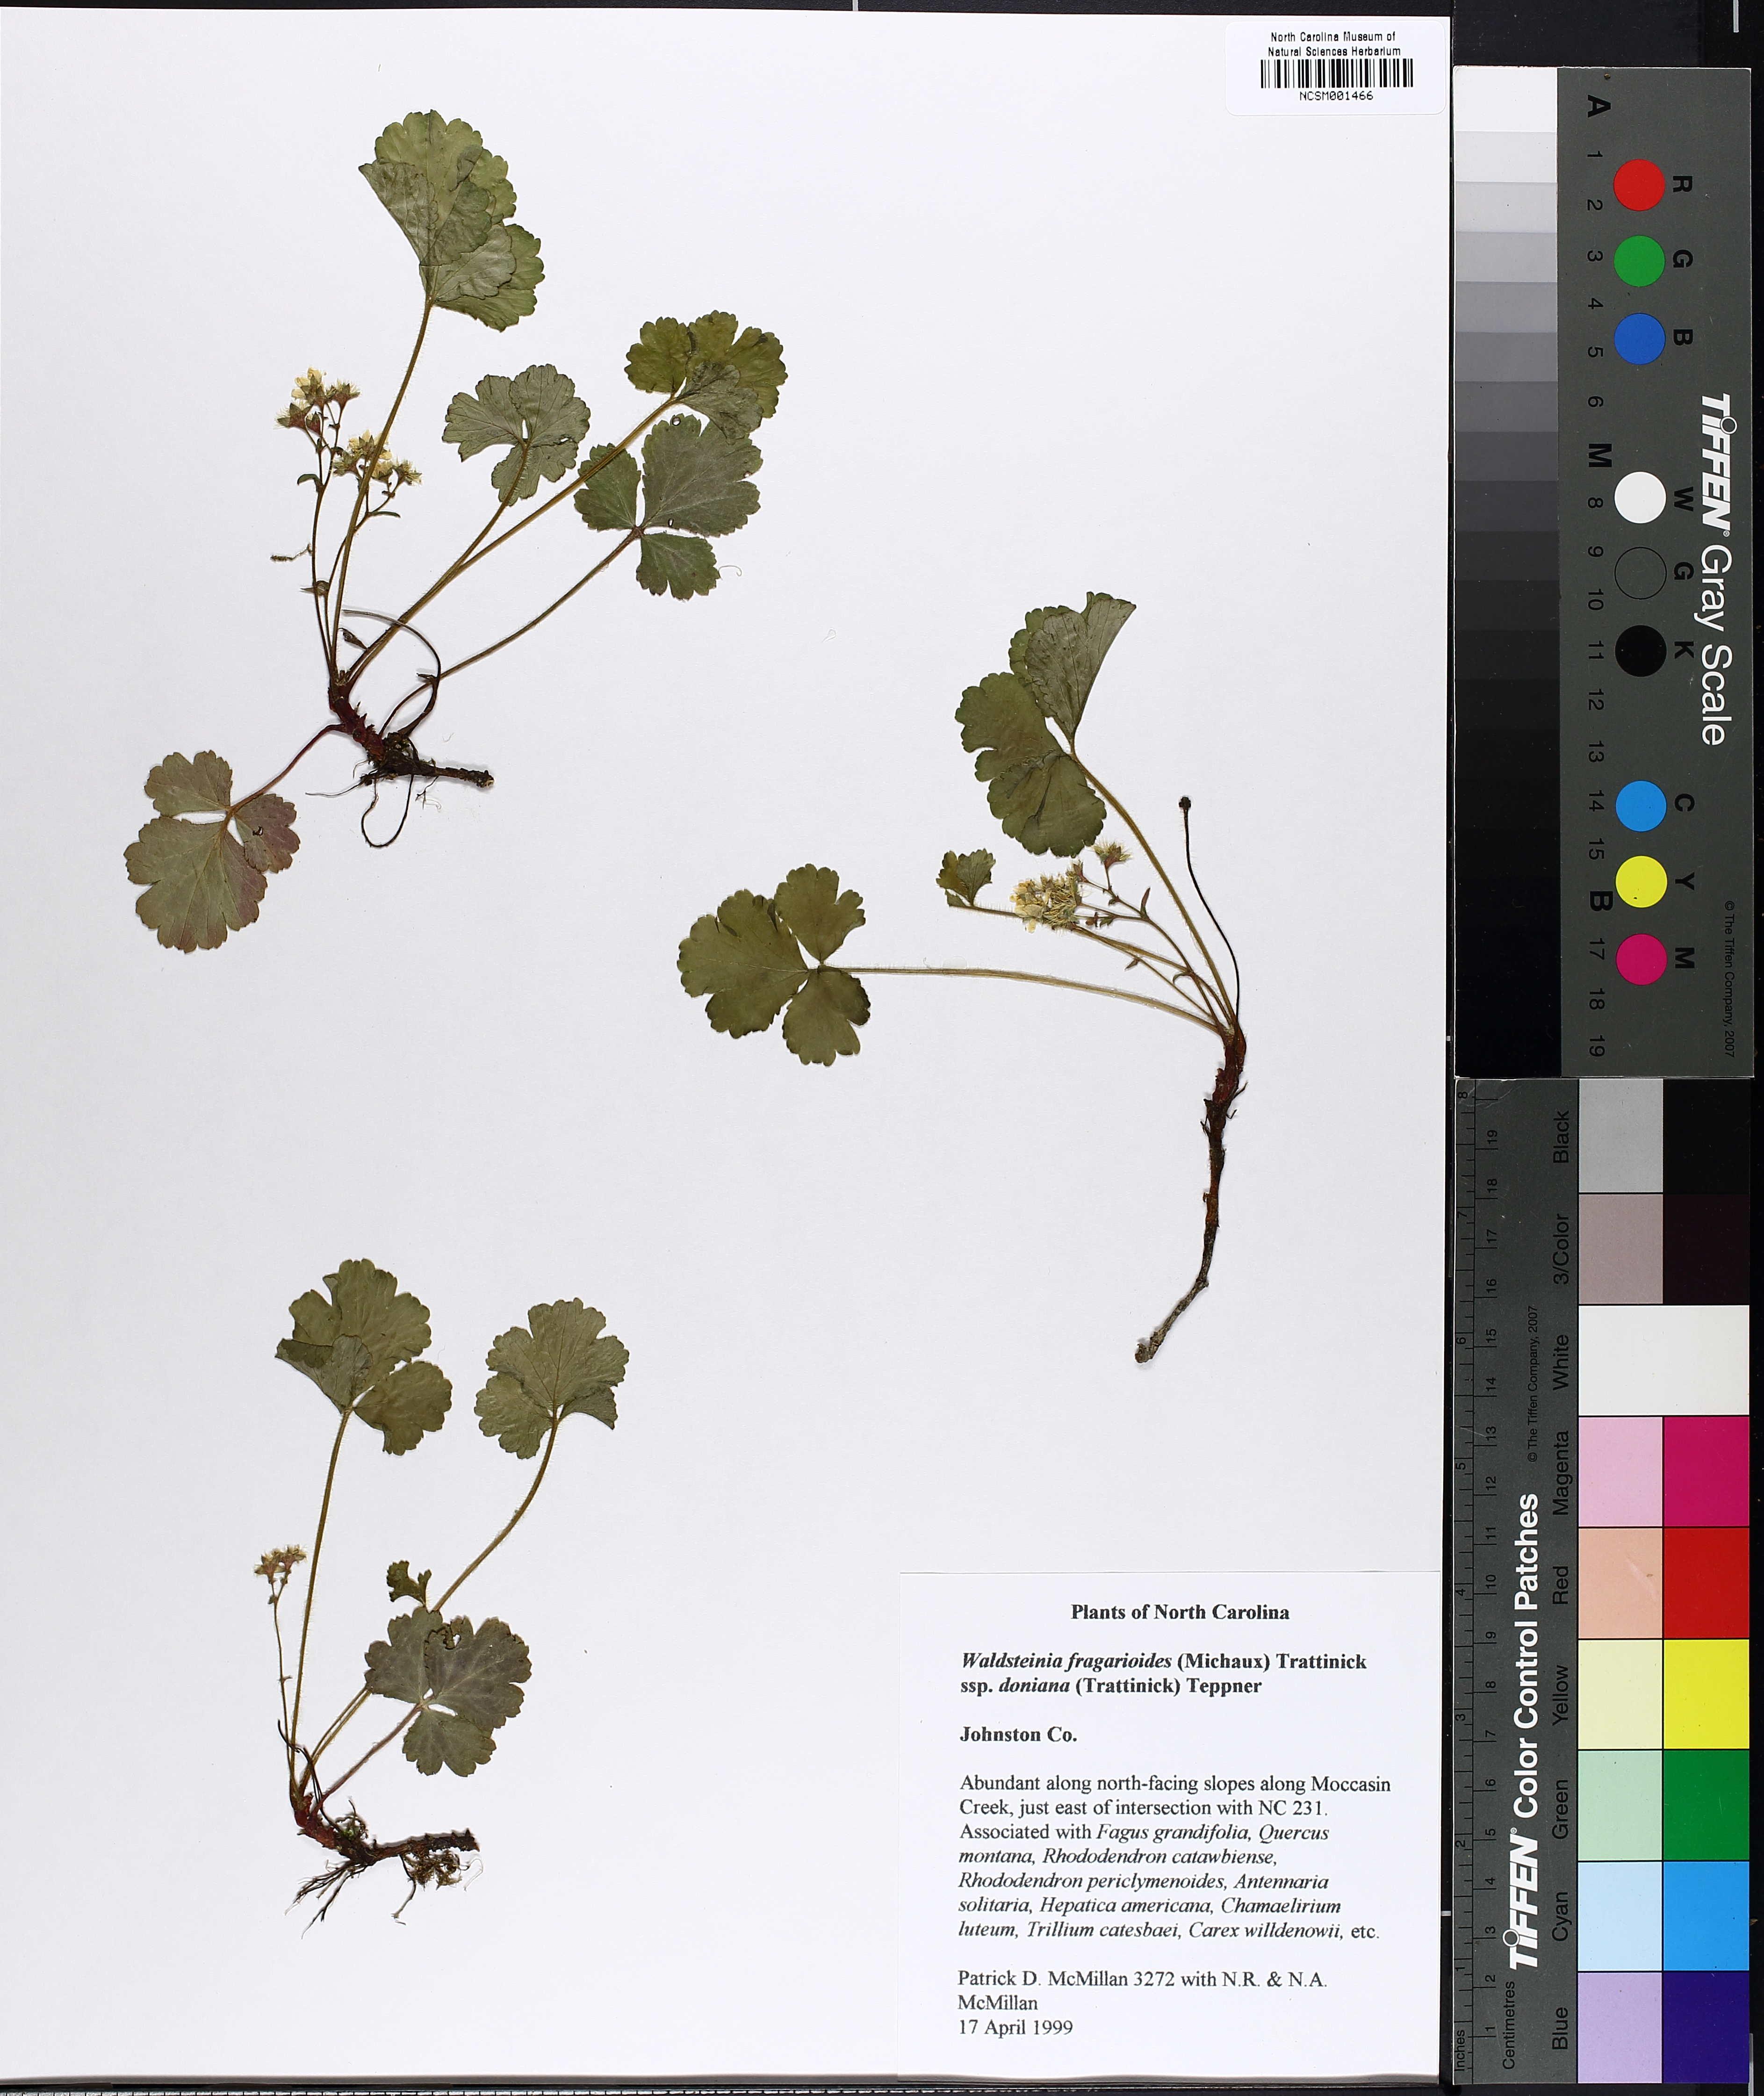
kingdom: Plantae
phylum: Tracheophyta
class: Magnoliopsida
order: Rosales
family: Rosaceae
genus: Geum
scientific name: Geum donianum
